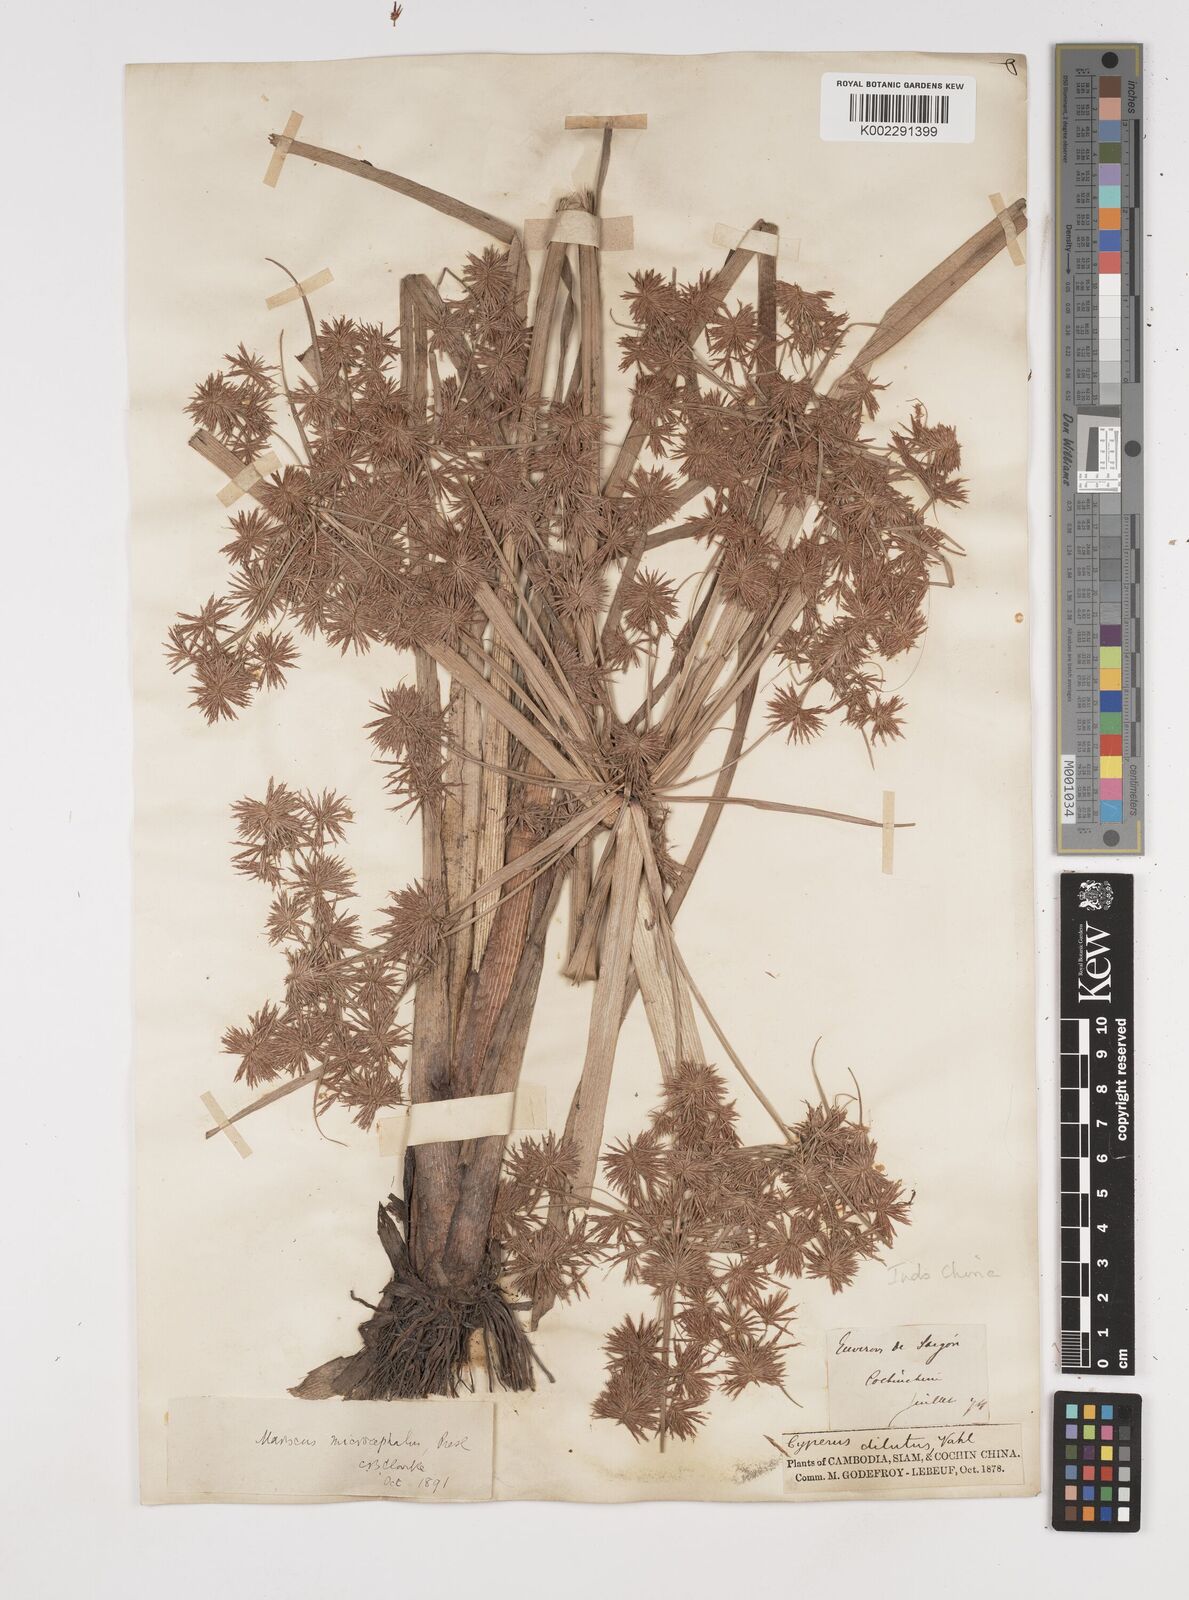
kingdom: Plantae
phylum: Tracheophyta
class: Liliopsida
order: Poales
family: Cyperaceae
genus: Cyperus
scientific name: Cyperus compactus
